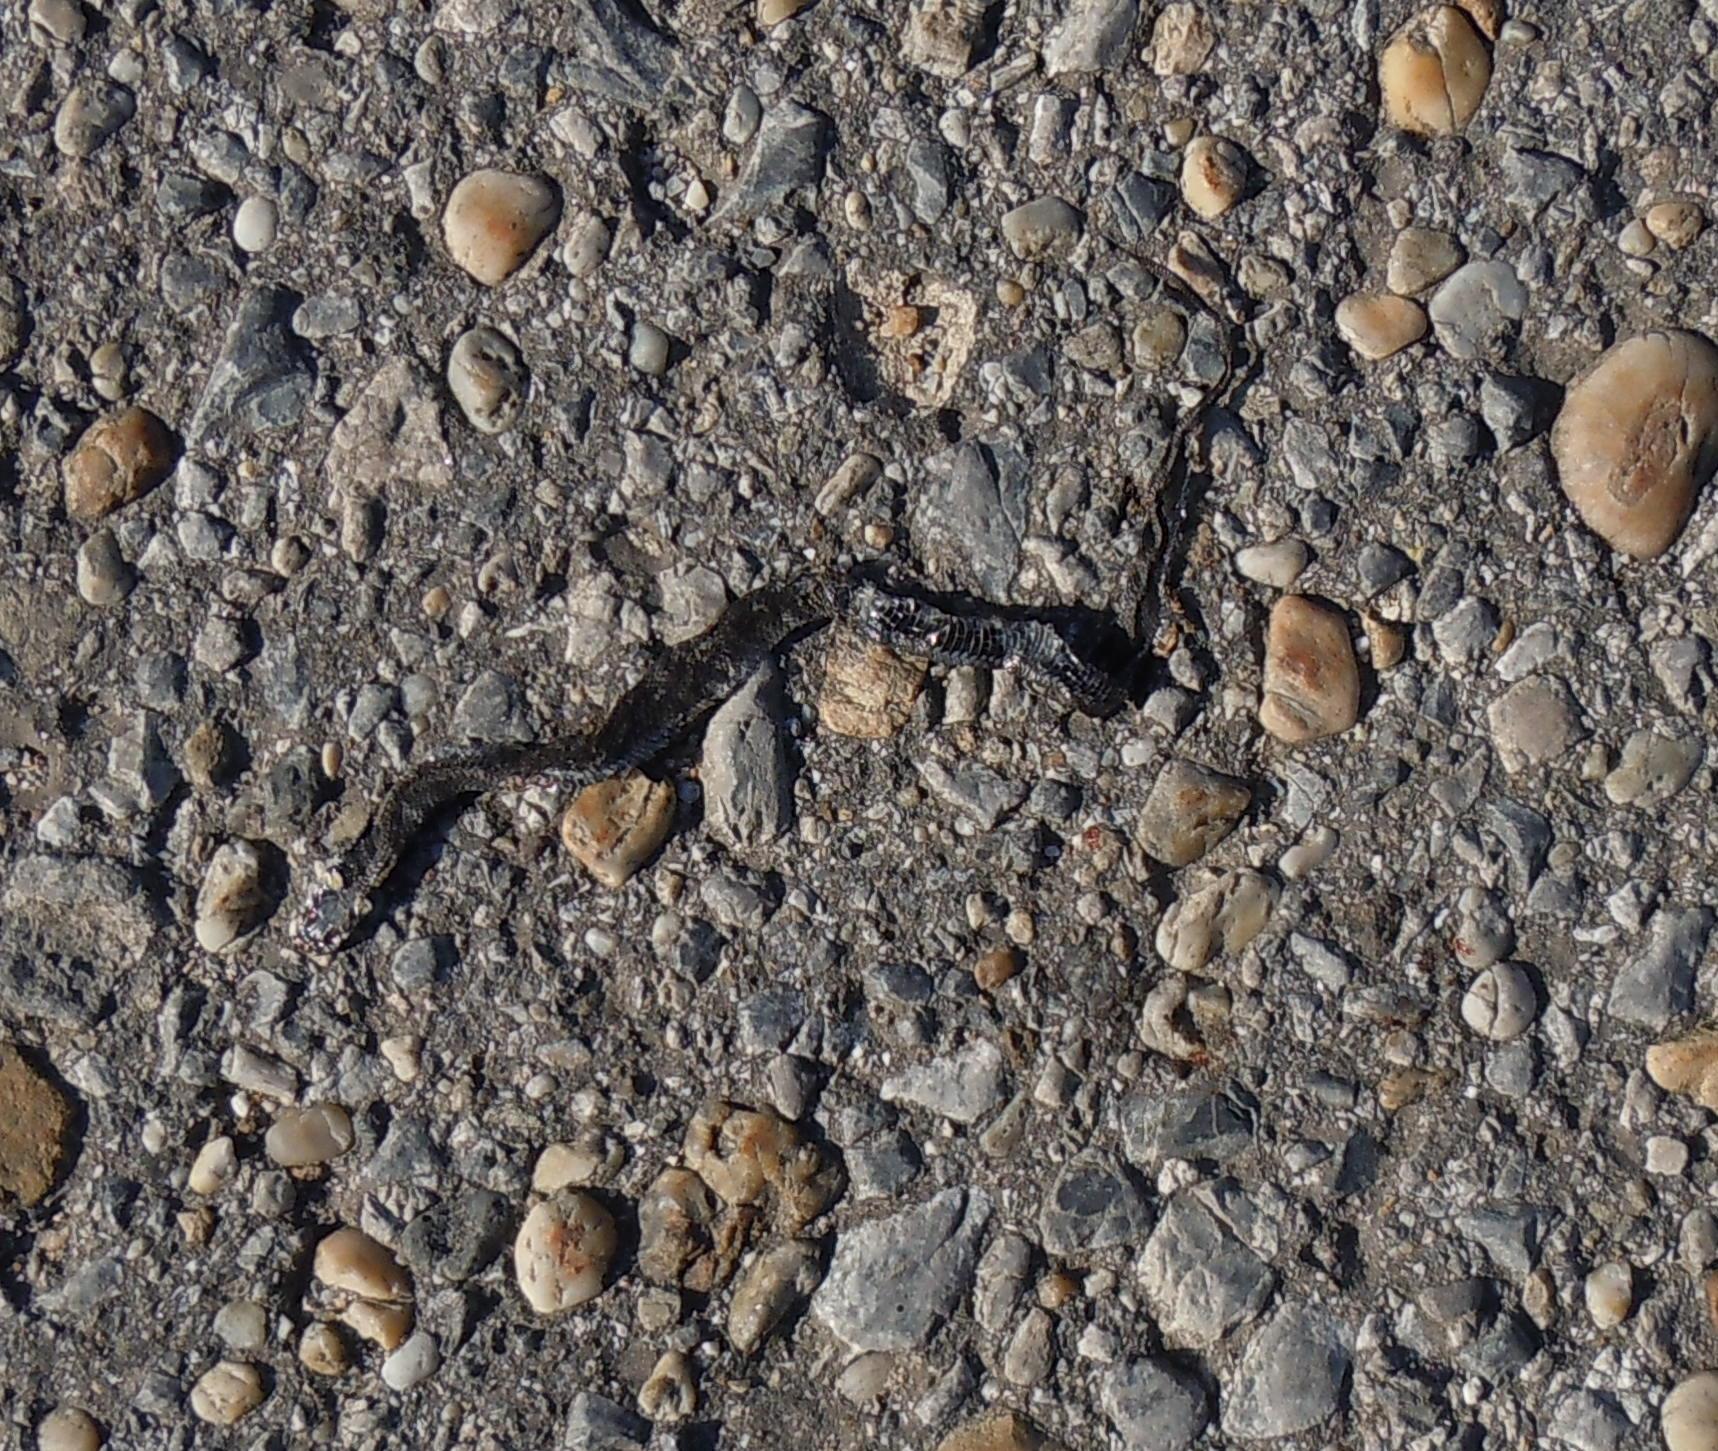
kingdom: Animalia
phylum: Chordata
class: Squamata
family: Colubridae
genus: Natrix
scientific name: Natrix natrix
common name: Grass snake
